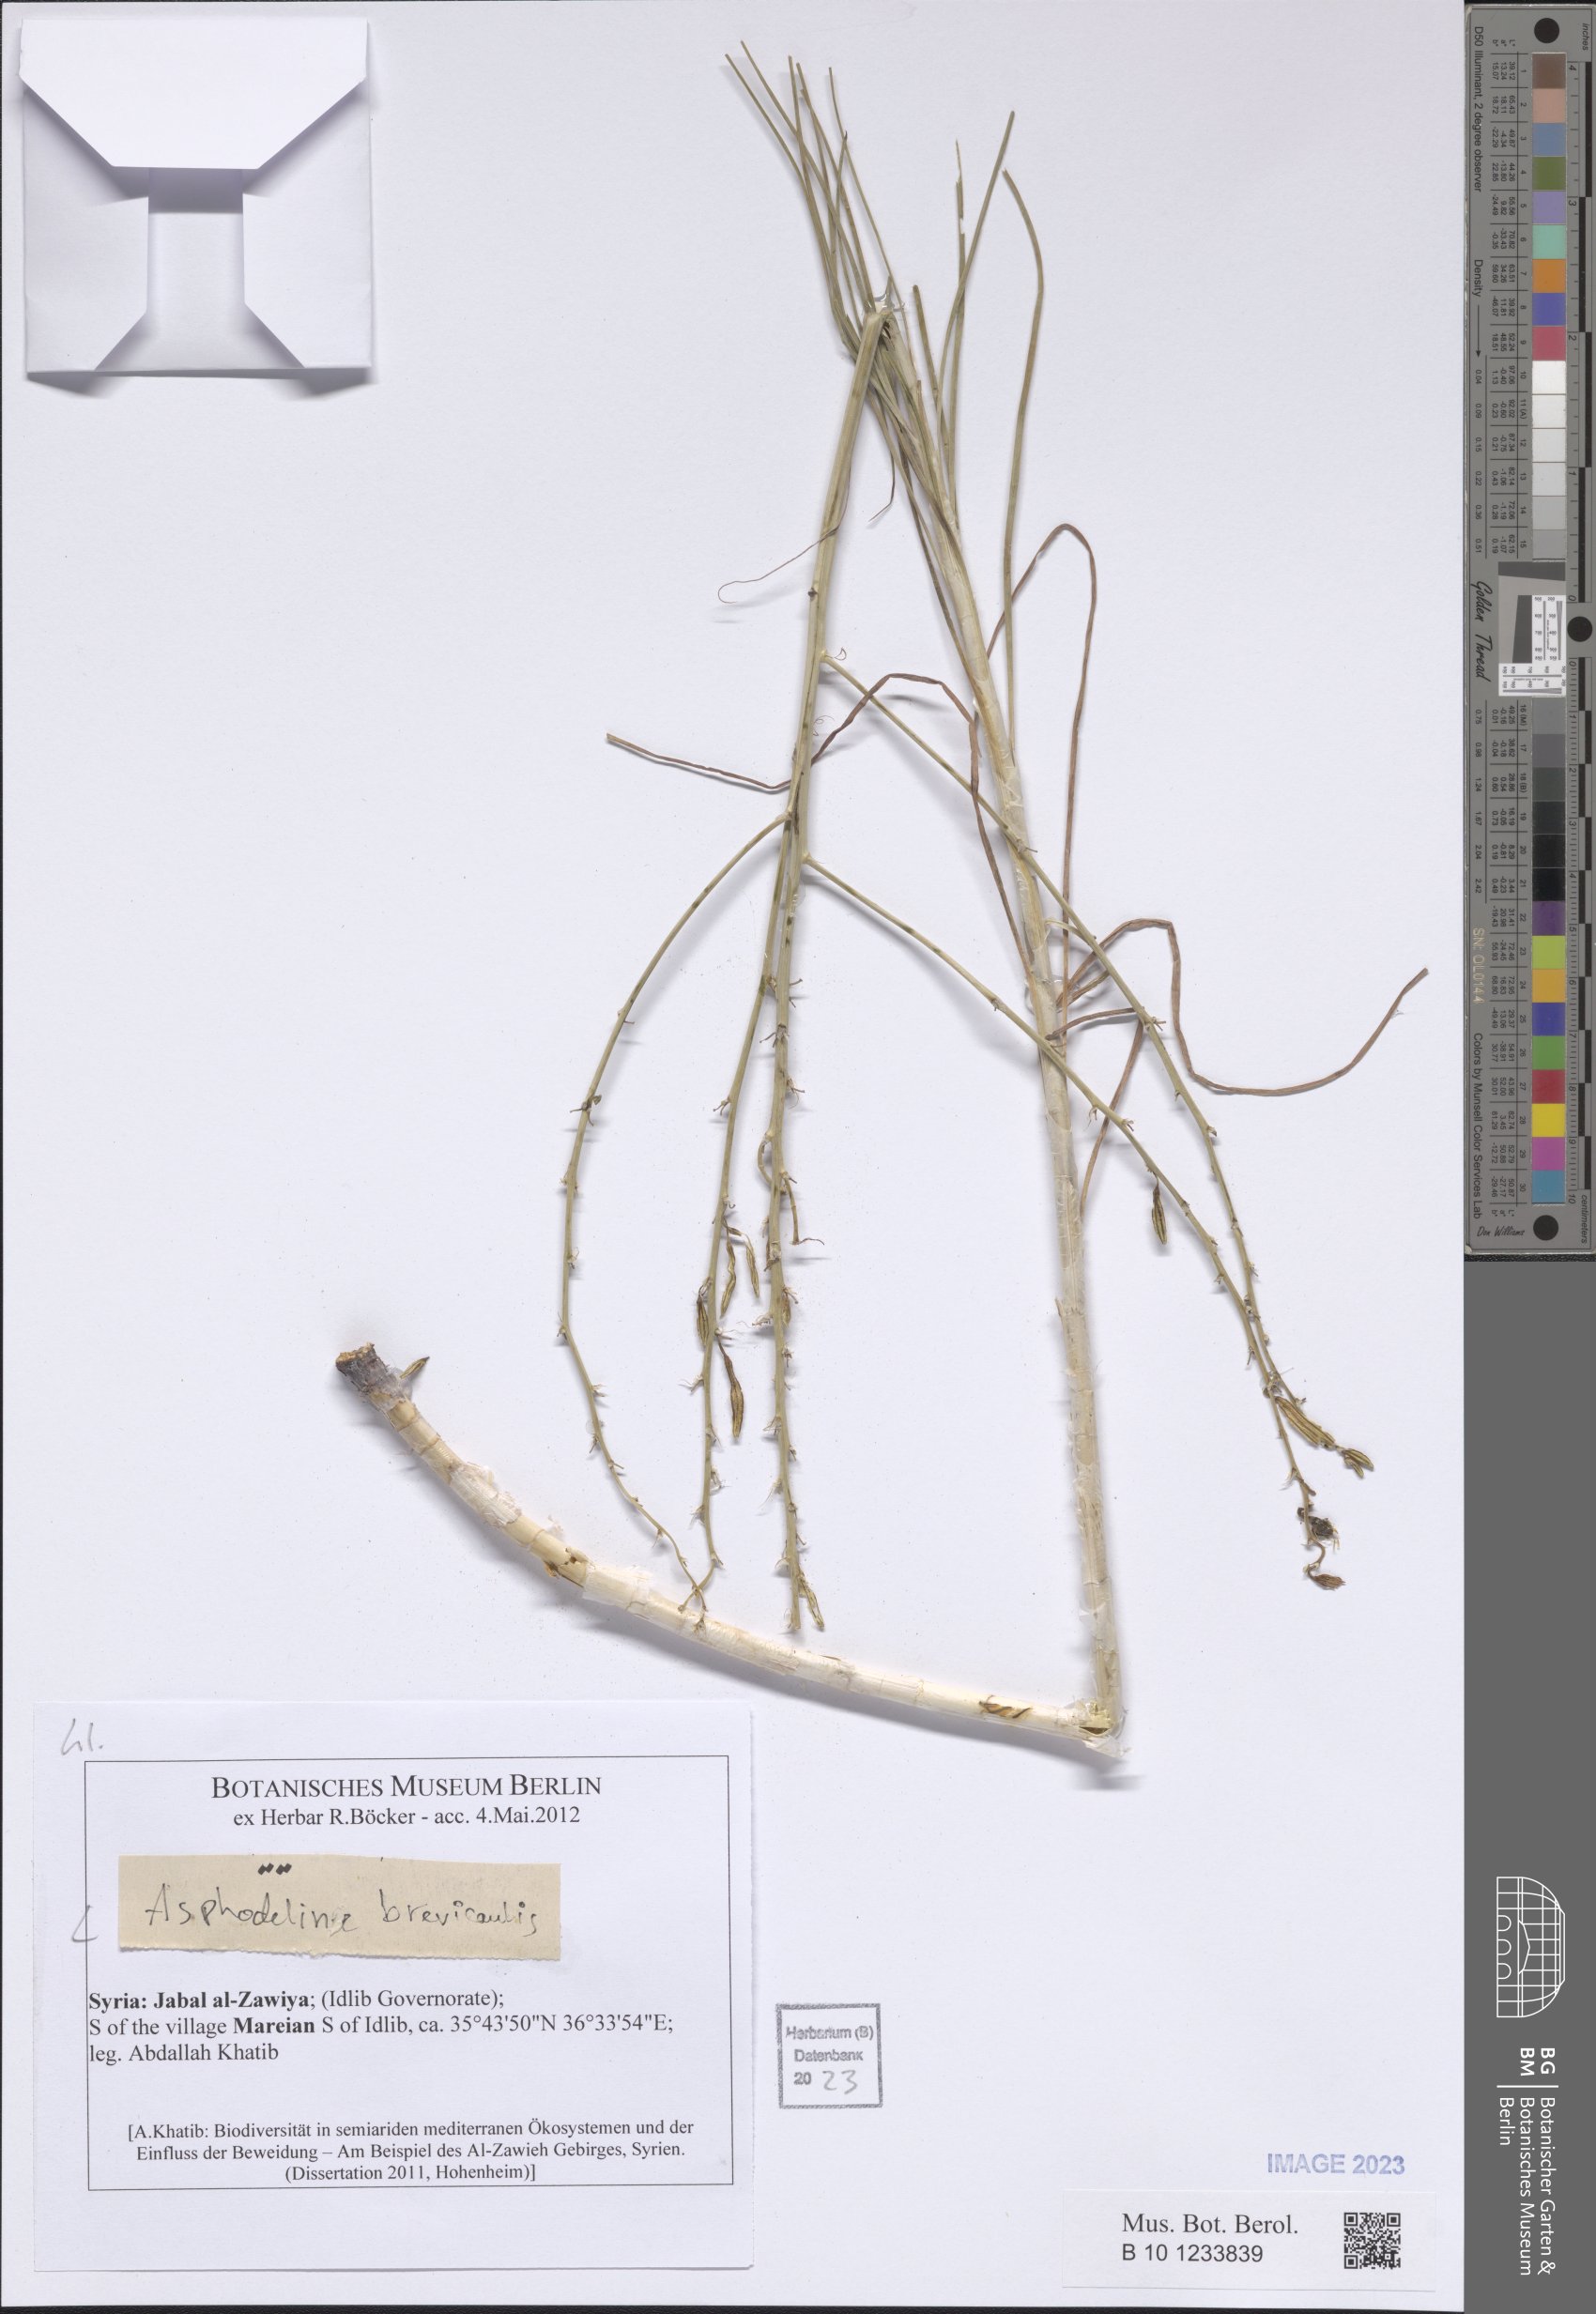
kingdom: Plantae
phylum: Tracheophyta
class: Liliopsida
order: Asparagales
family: Asphodelaceae
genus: Asphodeline
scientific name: Asphodeline brevicaulis
